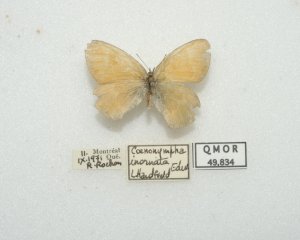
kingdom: Animalia
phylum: Arthropoda
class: Insecta
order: Lepidoptera
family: Nymphalidae
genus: Coenonympha
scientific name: Coenonympha tullia
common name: Large Heath
